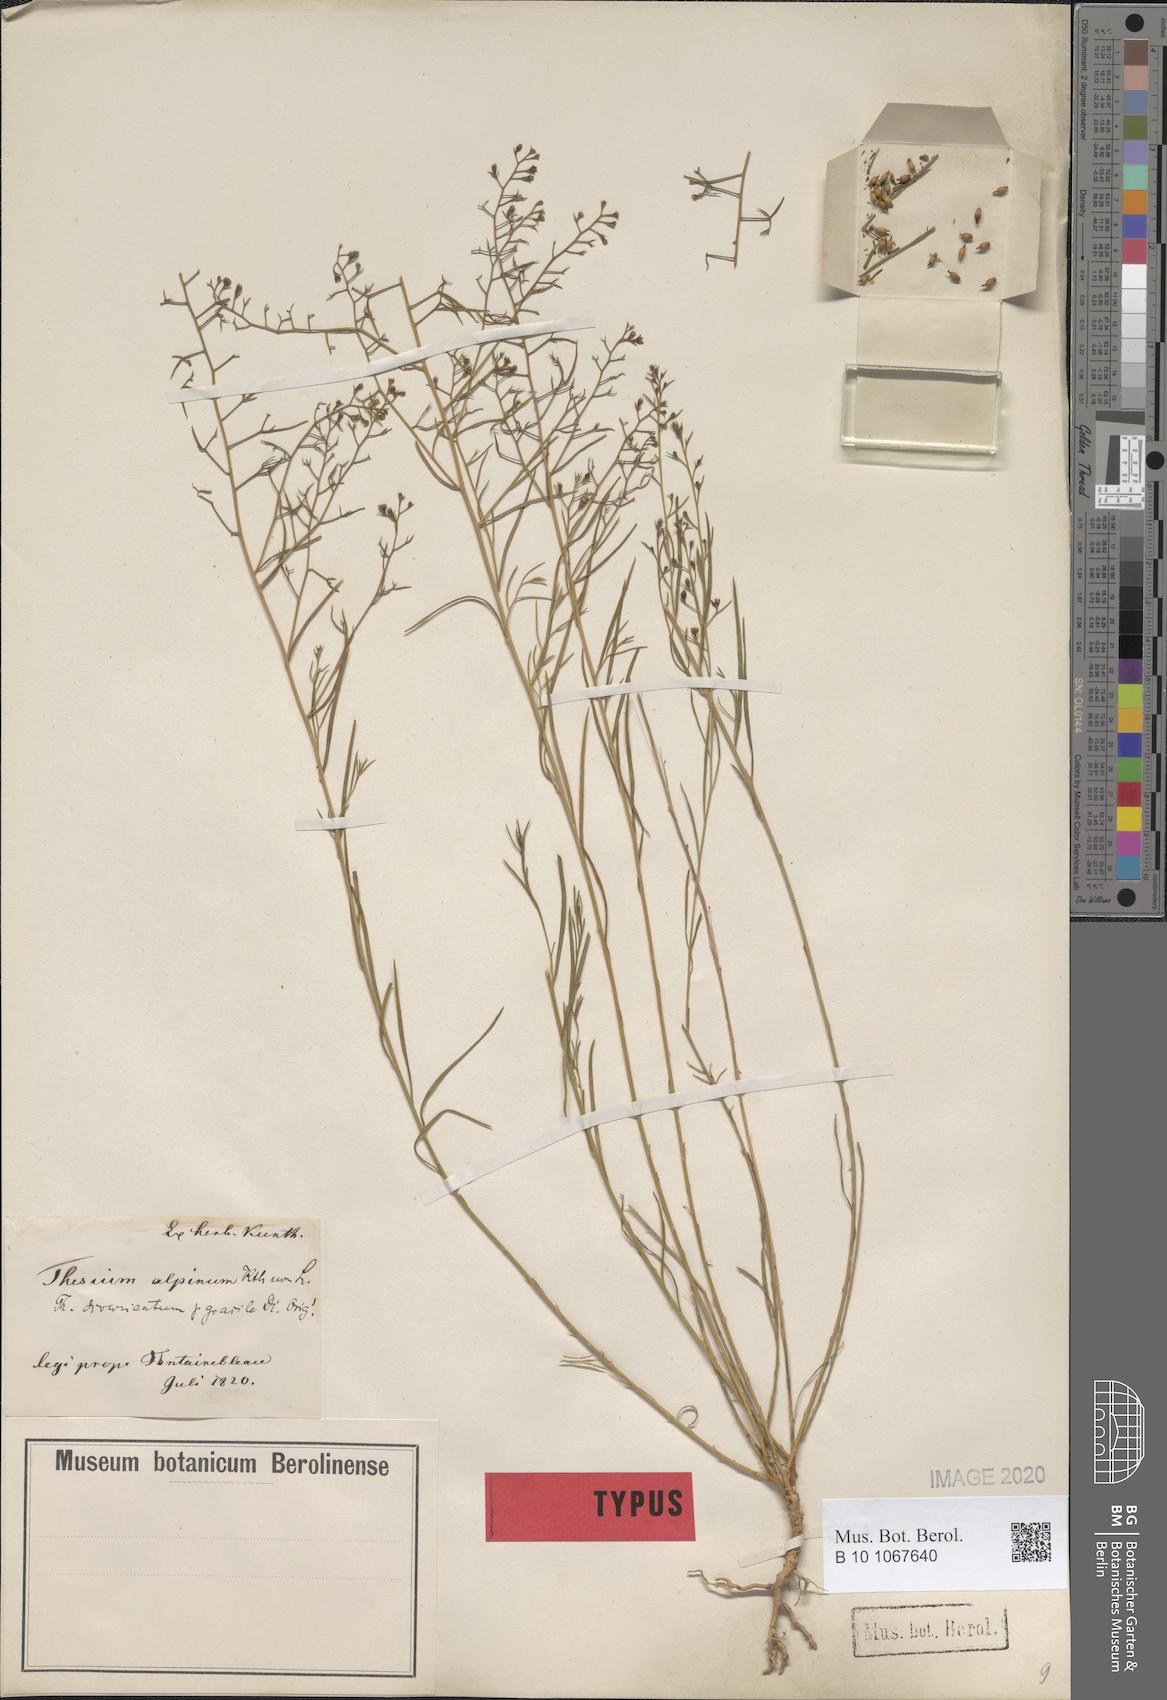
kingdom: Plantae
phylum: Tracheophyta
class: Magnoliopsida
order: Santalales
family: Thesiaceae
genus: Thesium
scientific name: Thesium divaricatum
